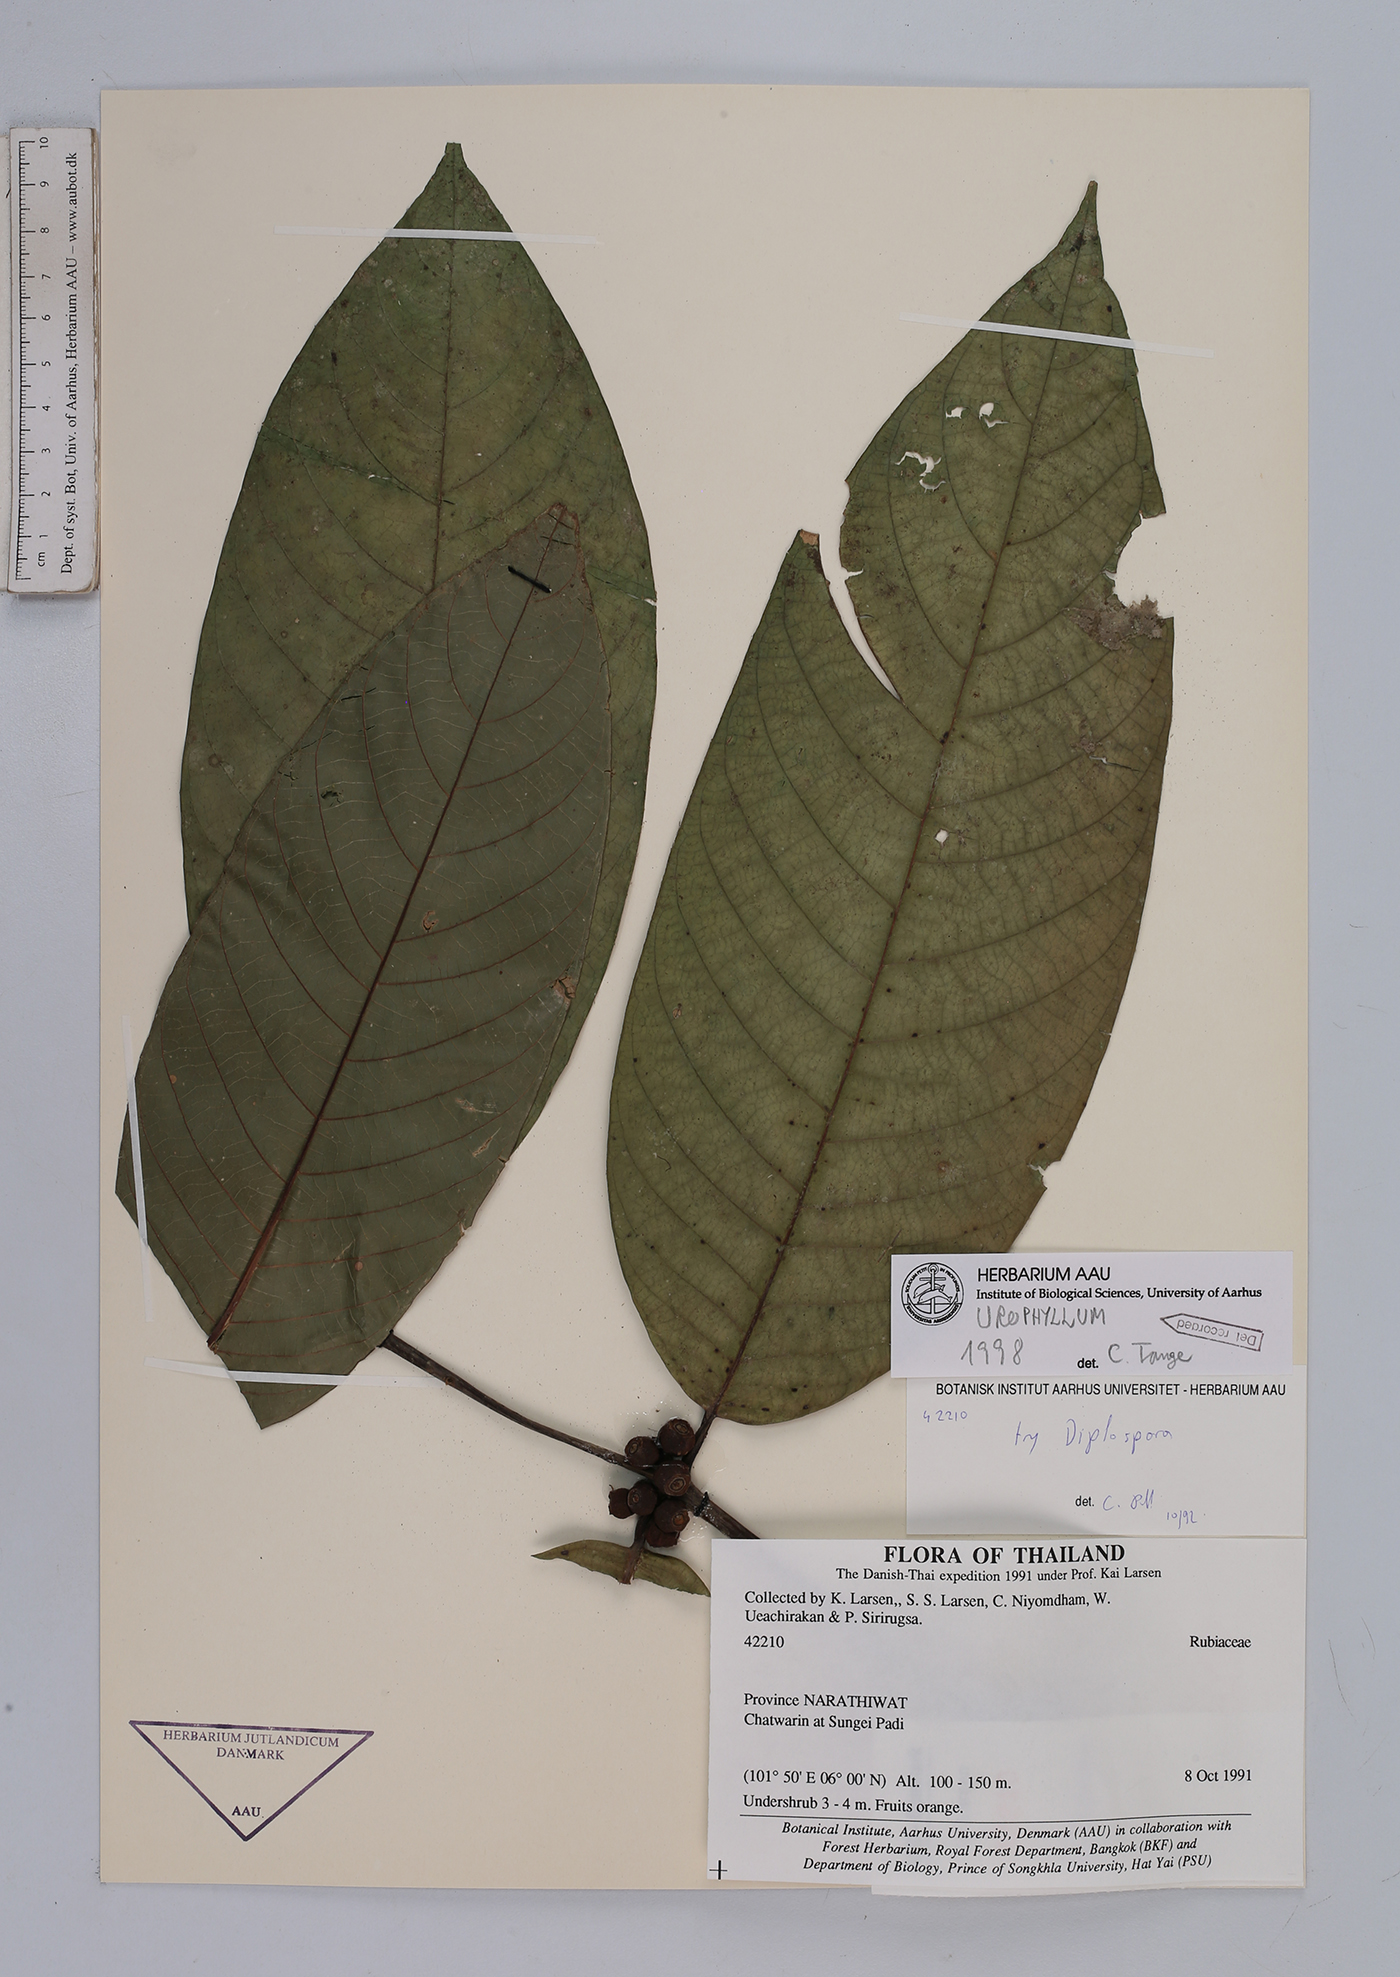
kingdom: Plantae
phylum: Tracheophyta
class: Magnoliopsida
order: Gentianales
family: Rubiaceae
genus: Urophyllum
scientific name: Urophyllum
